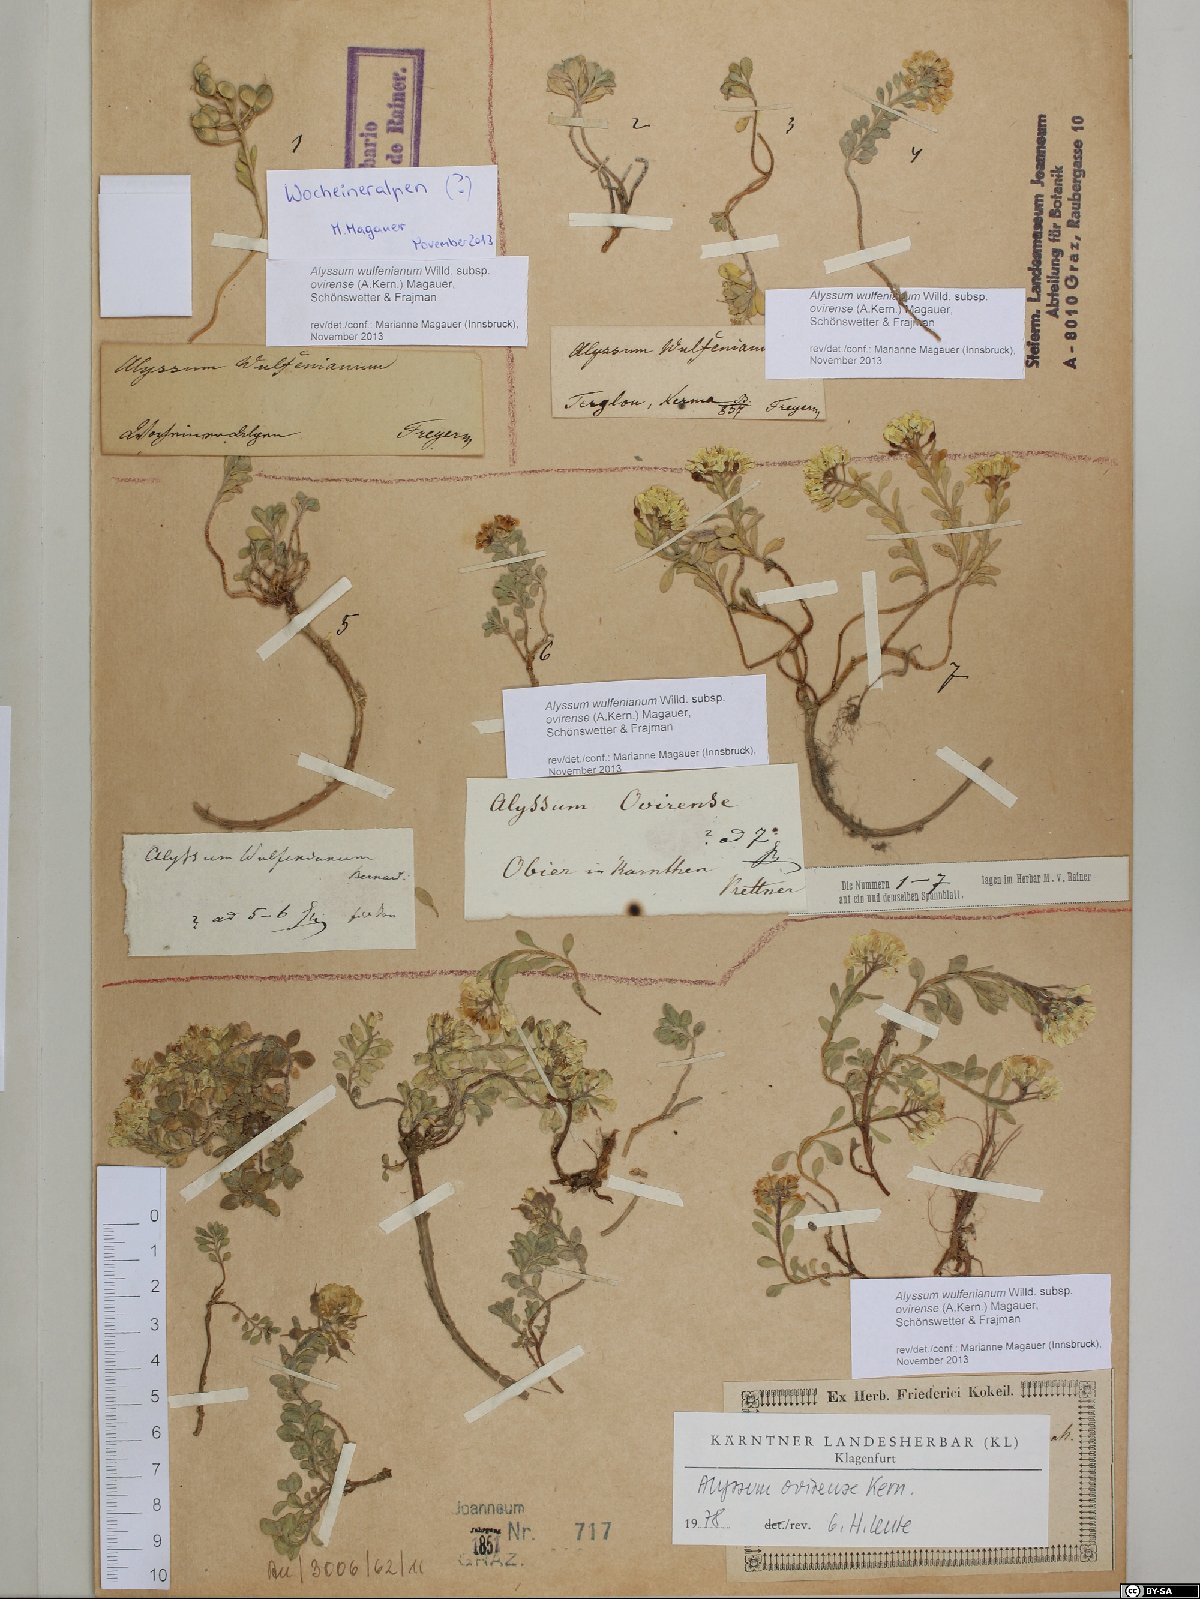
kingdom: Plantae
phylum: Tracheophyta
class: Magnoliopsida
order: Brassicales
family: Brassicaceae
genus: Alyssum
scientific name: Alyssum wulfenianum
